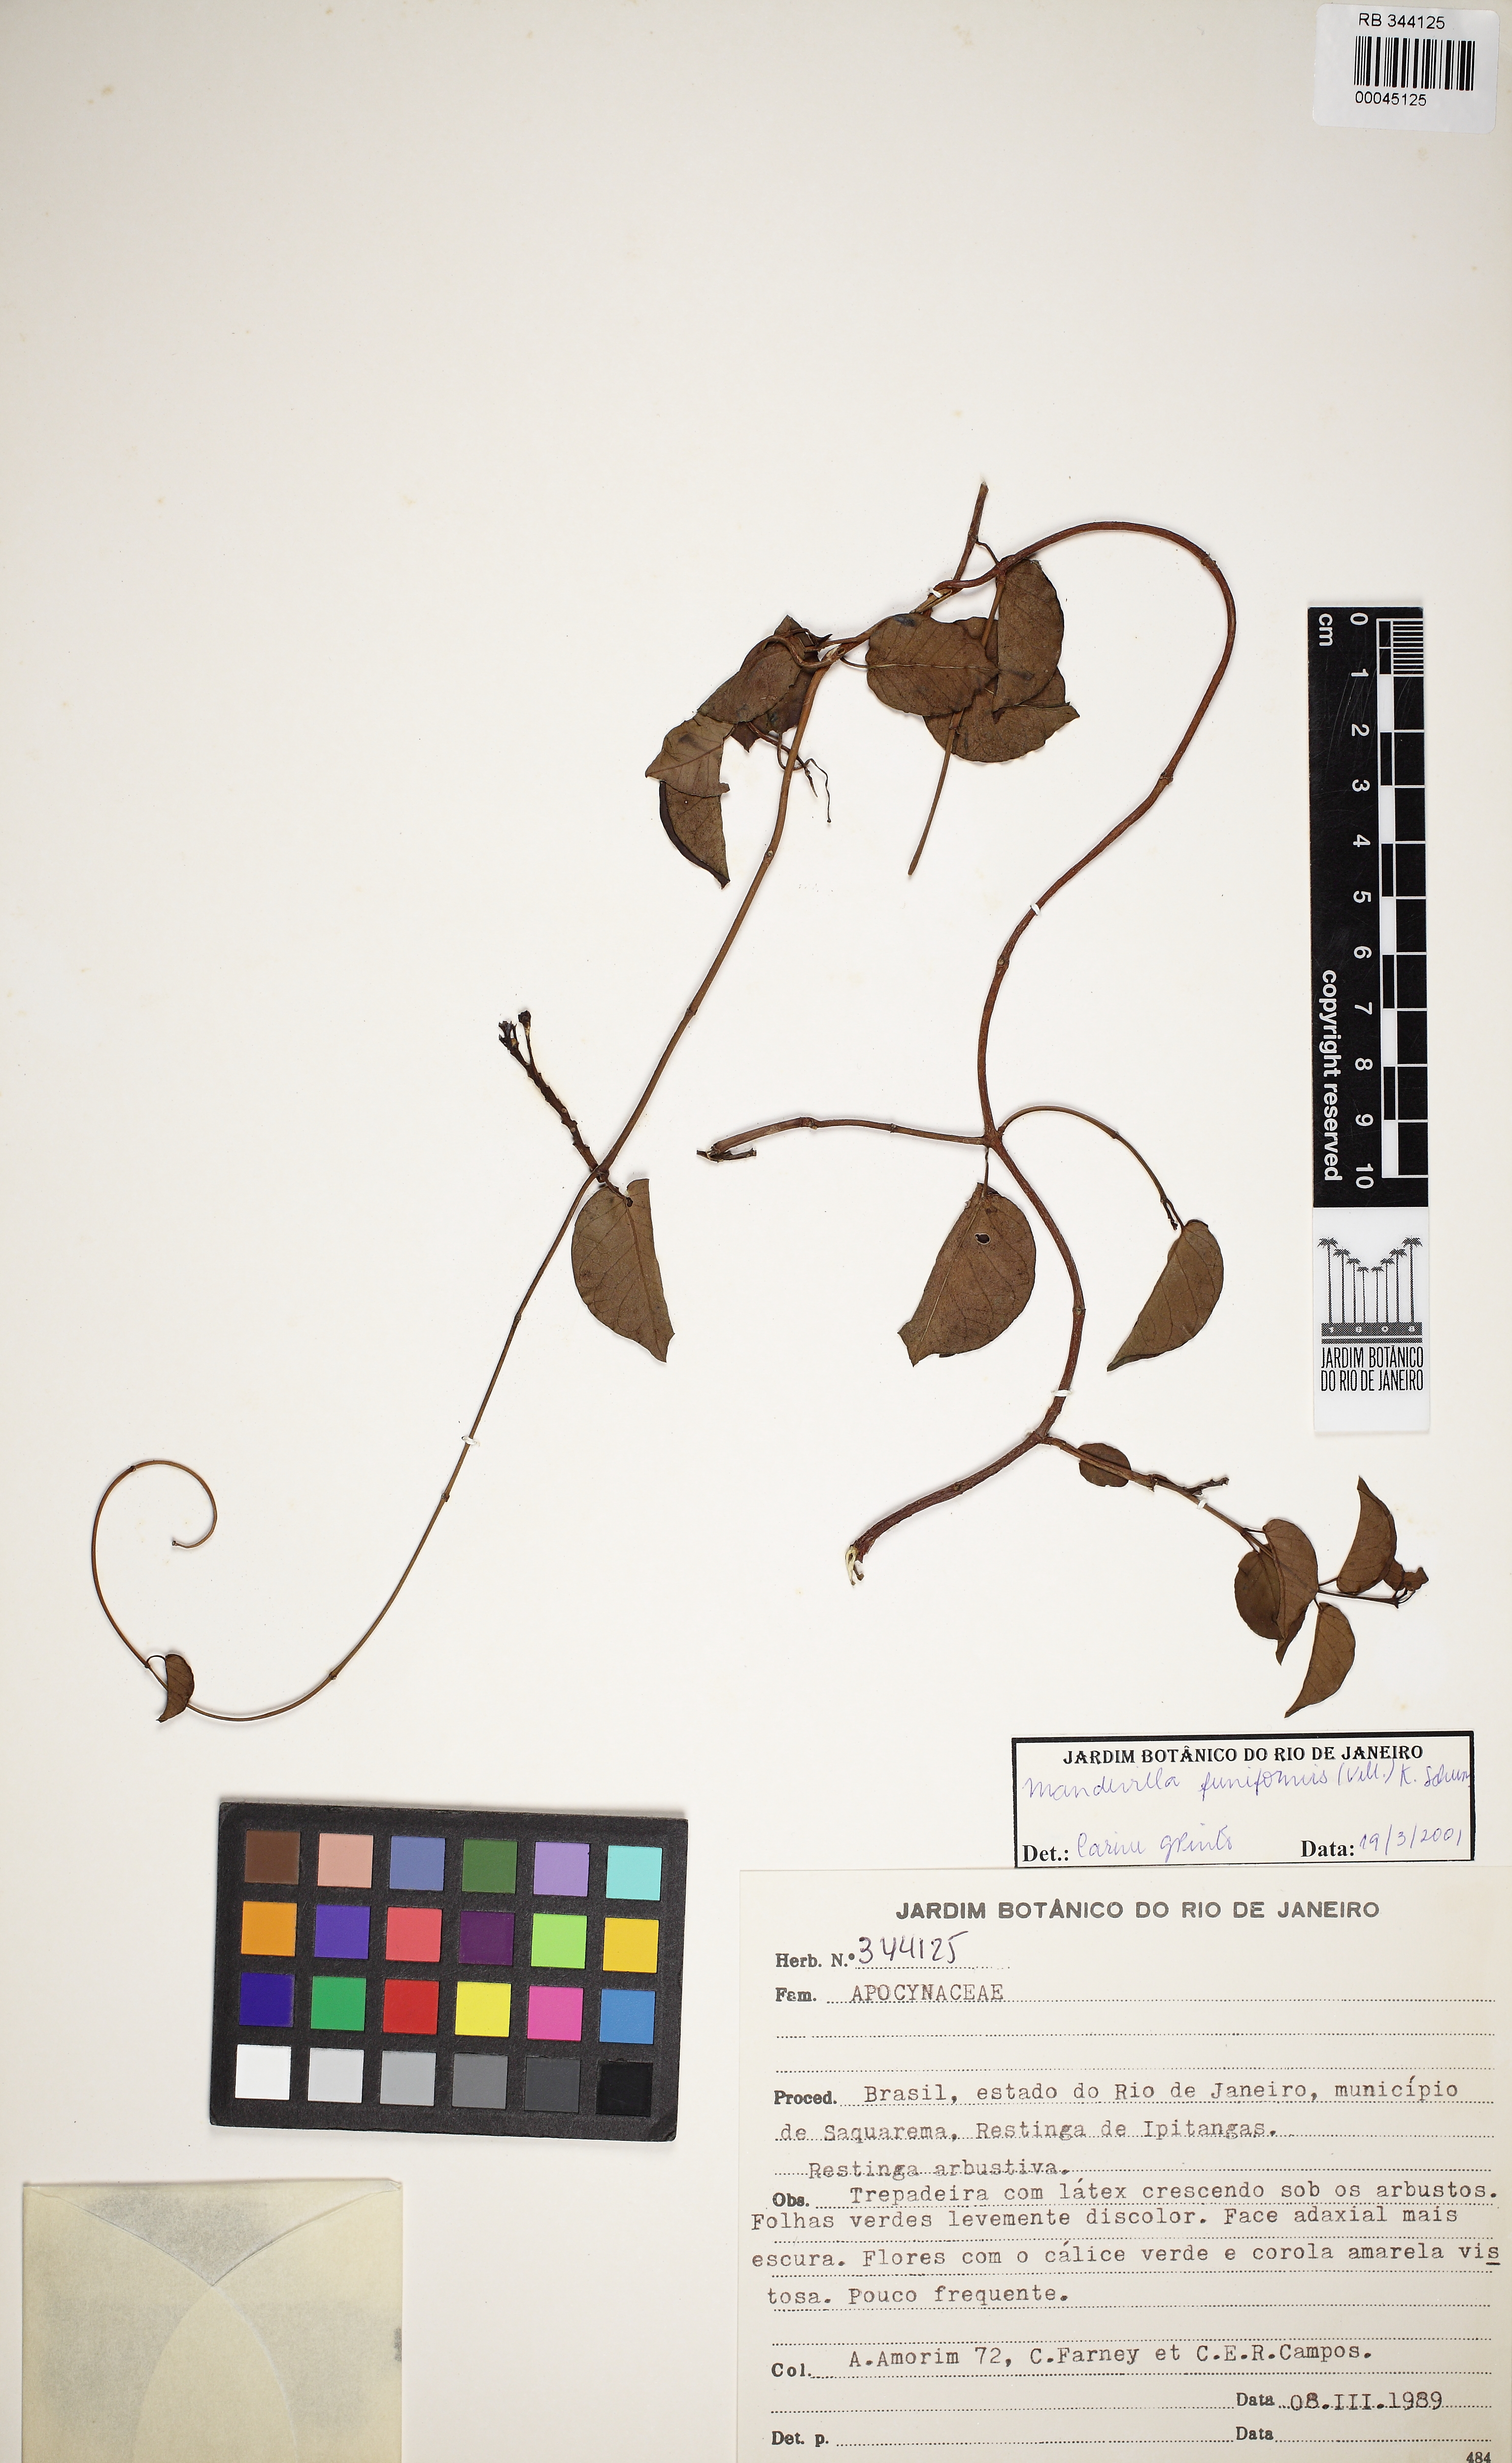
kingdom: Plantae
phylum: Tracheophyta
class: Magnoliopsida
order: Gentianales
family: Apocynaceae
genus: Mandevilla
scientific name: Mandevilla funiformis
